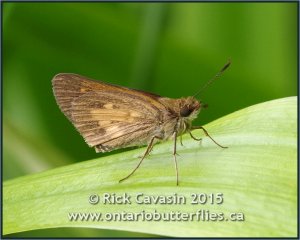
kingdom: Animalia
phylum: Arthropoda
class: Insecta
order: Lepidoptera
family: Hesperiidae
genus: Poanes
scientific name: Poanes viator
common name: Broad-winged Skipper
